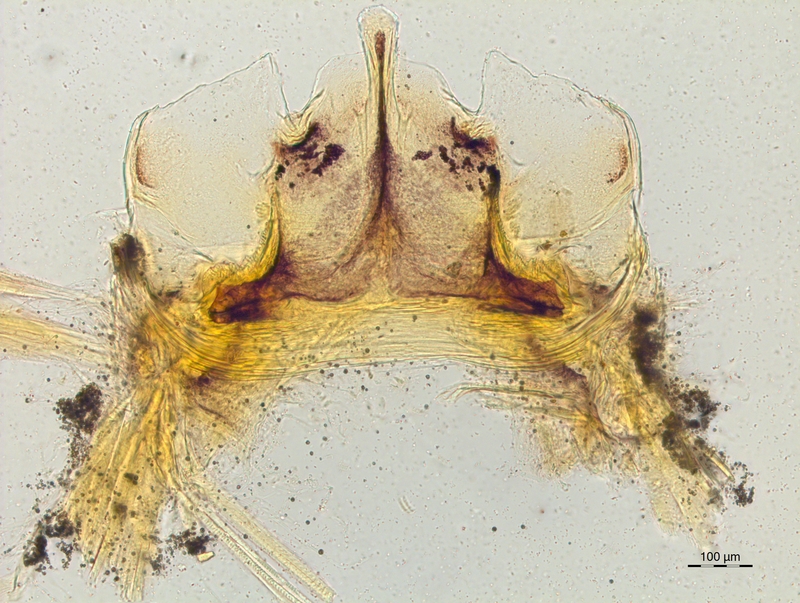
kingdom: Animalia
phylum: Arthropoda
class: Diplopoda
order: Chordeumatida
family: Craspedosomatidae
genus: Craspedosoma
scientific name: Craspedosoma taurinorum
